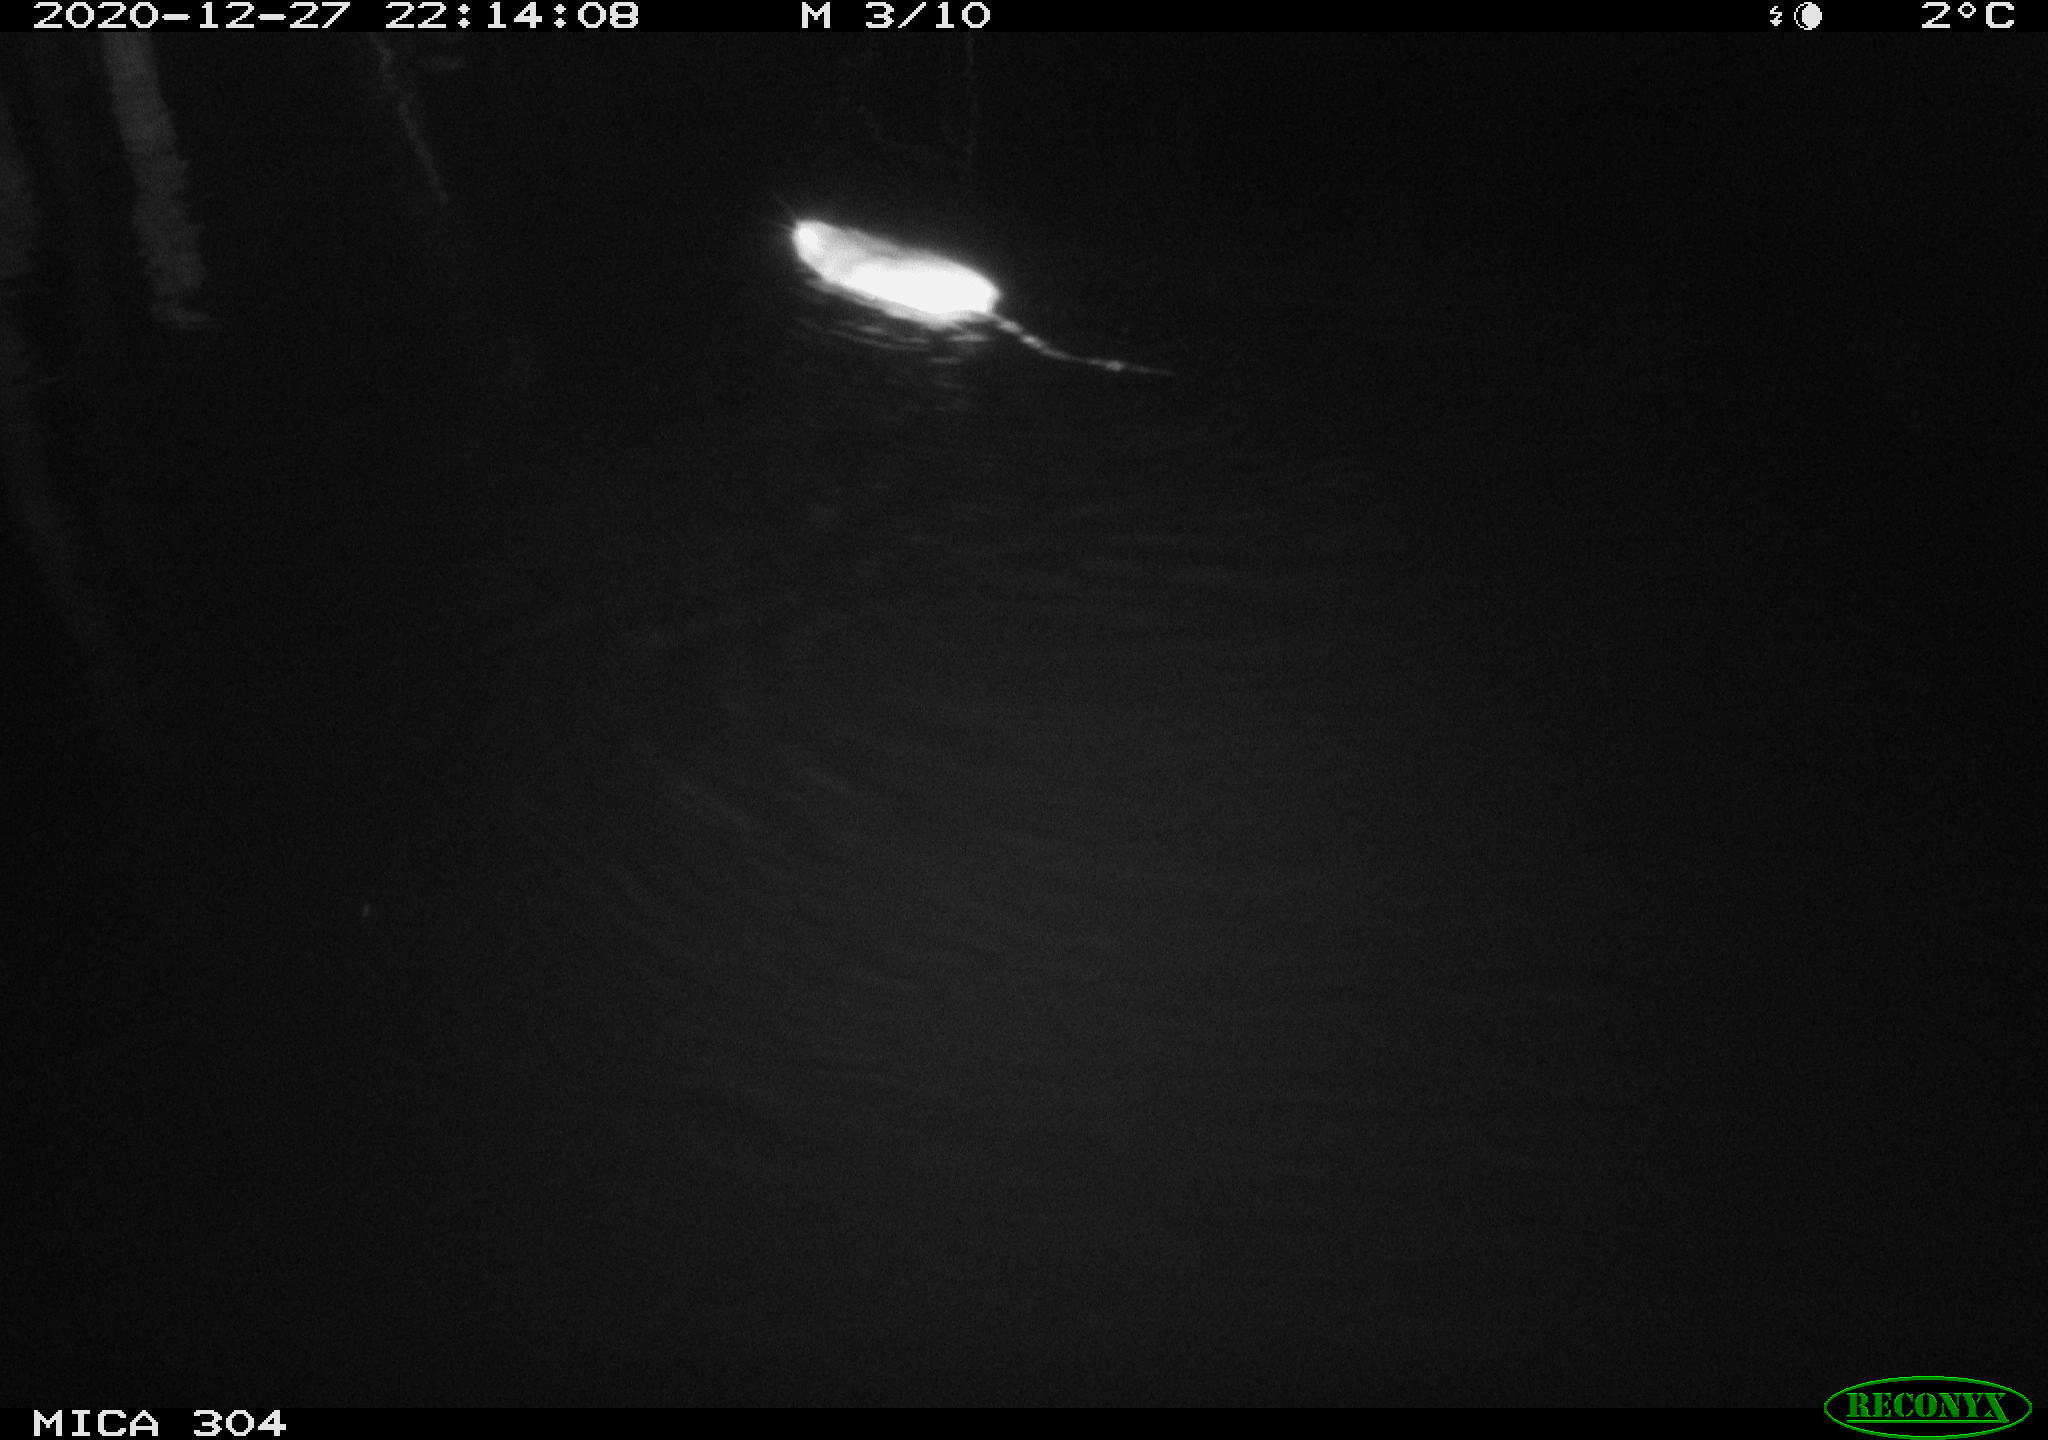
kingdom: Animalia
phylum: Chordata
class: Mammalia
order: Rodentia
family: Muridae
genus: Rattus
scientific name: Rattus norvegicus
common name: Brown rat
